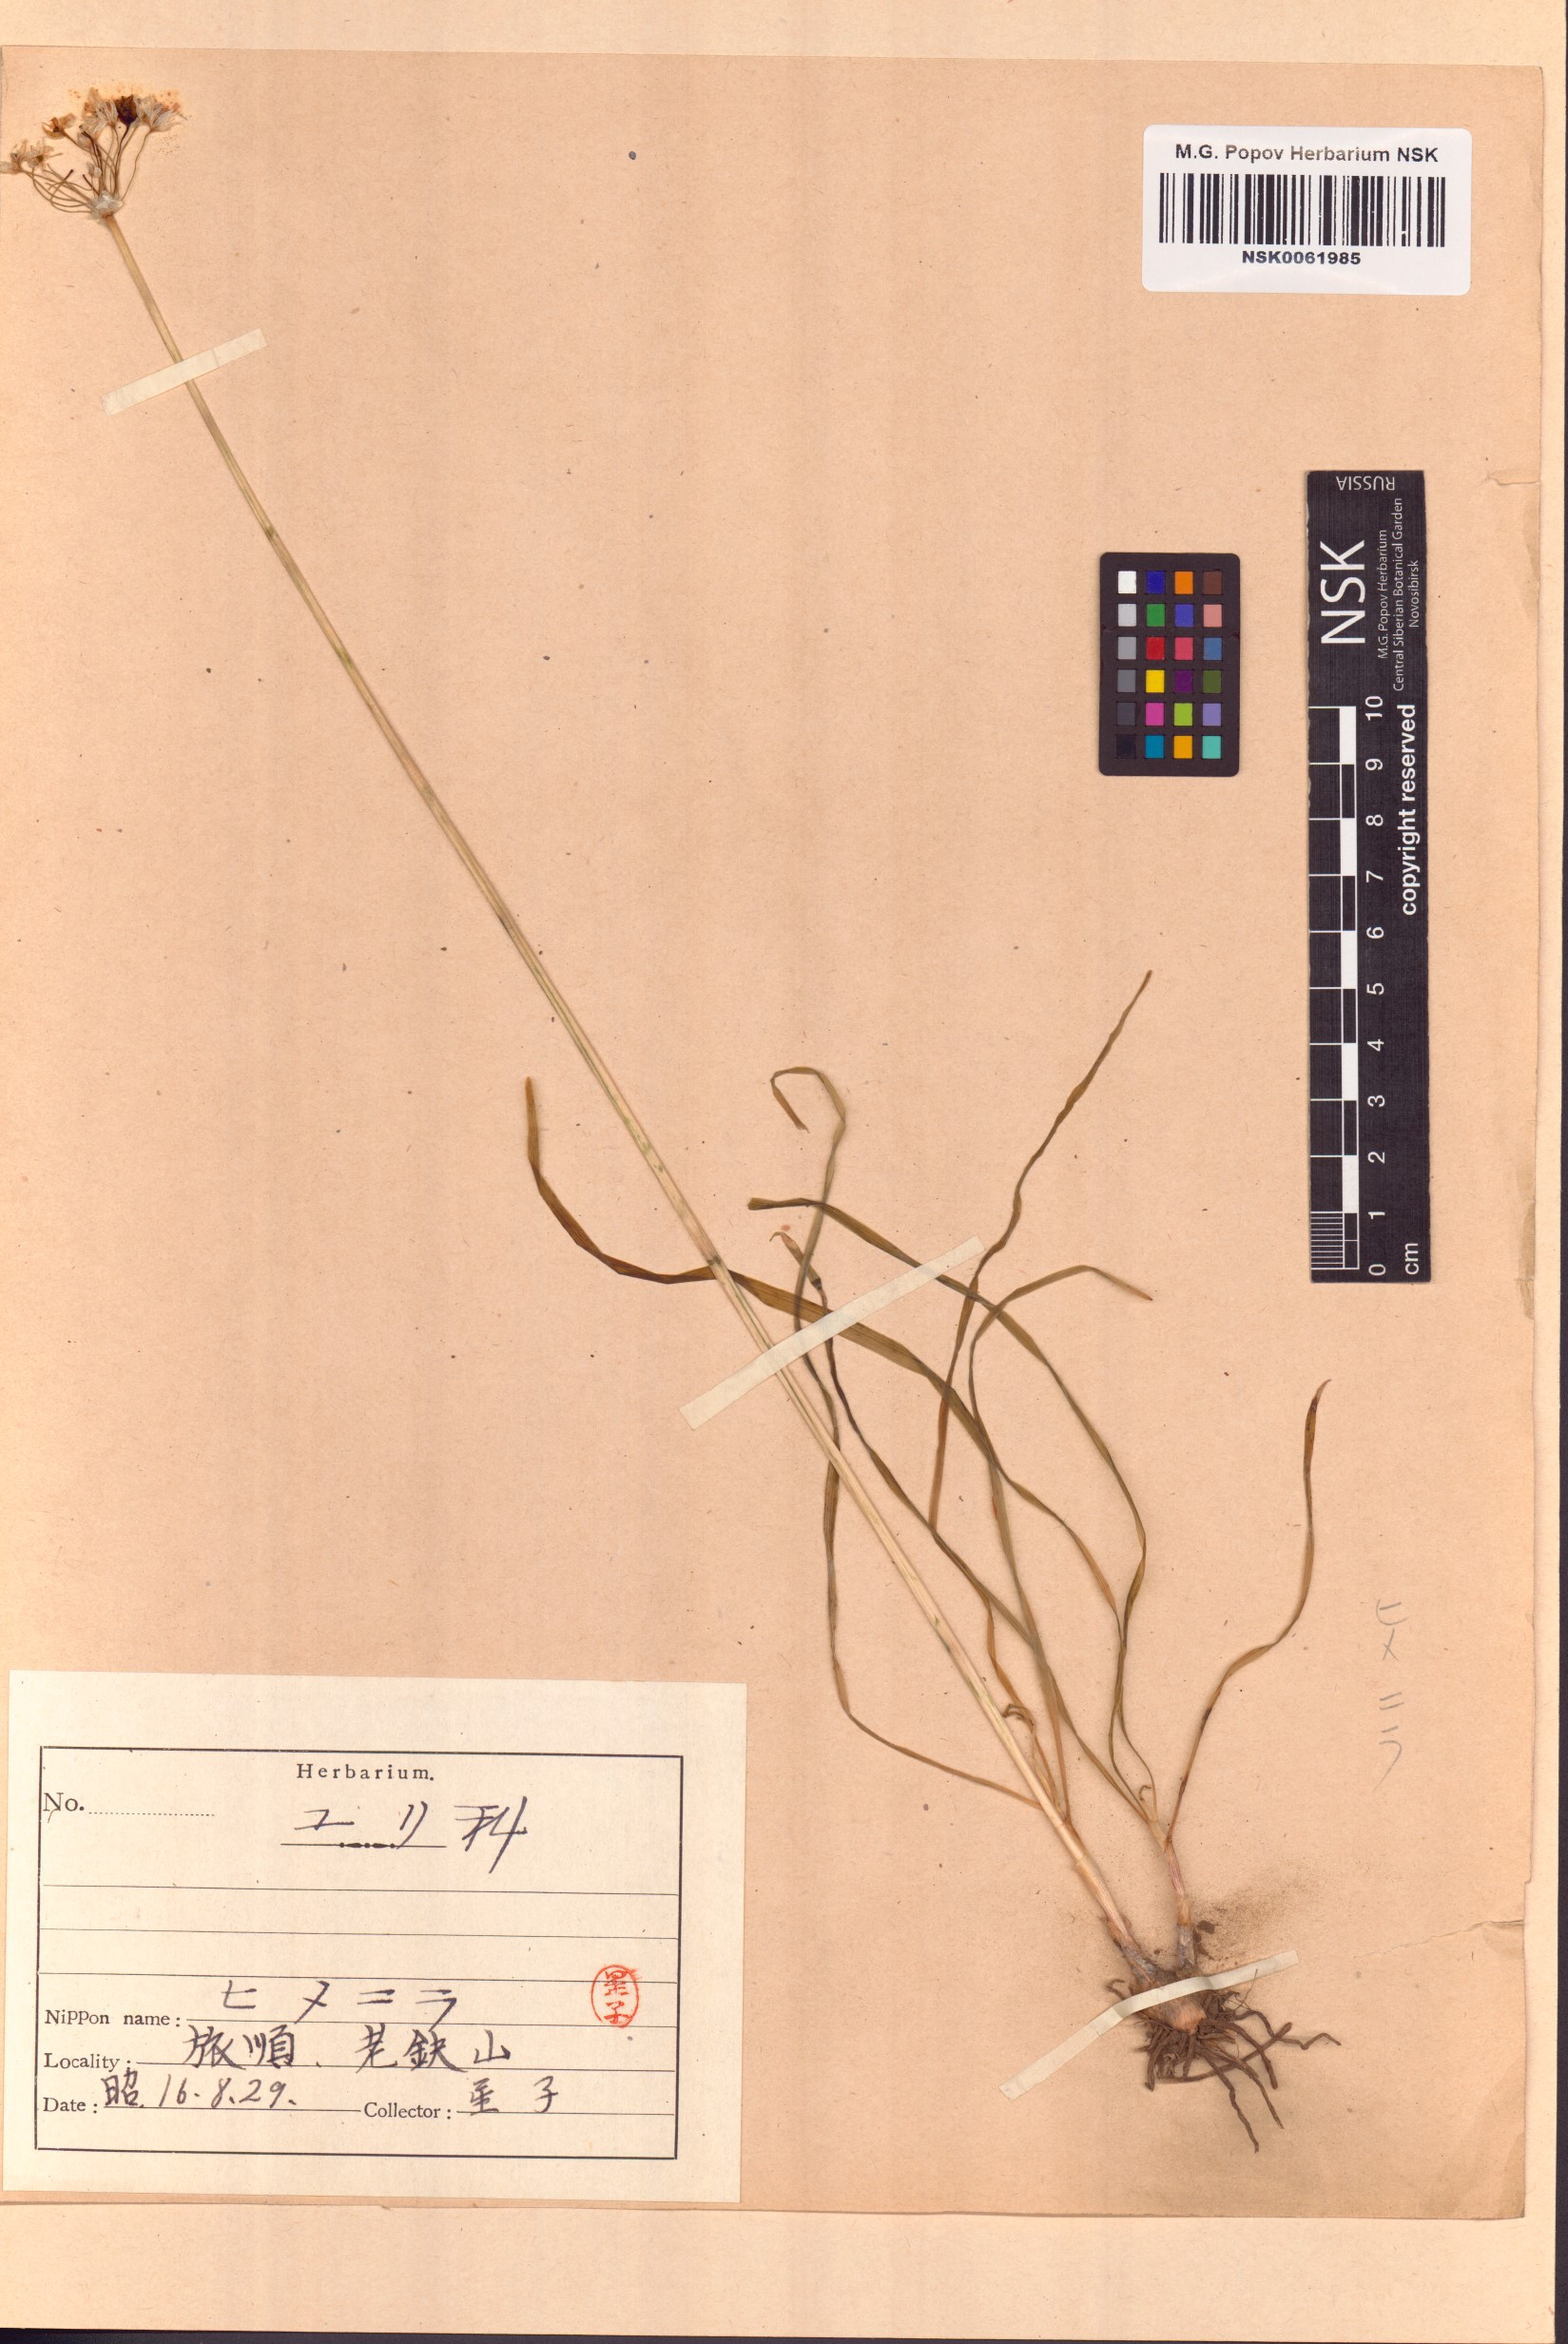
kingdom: Plantae
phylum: Tracheophyta
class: Liliopsida
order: Asparagales
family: Amaryllidaceae
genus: Allium
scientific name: Allium monanthum
